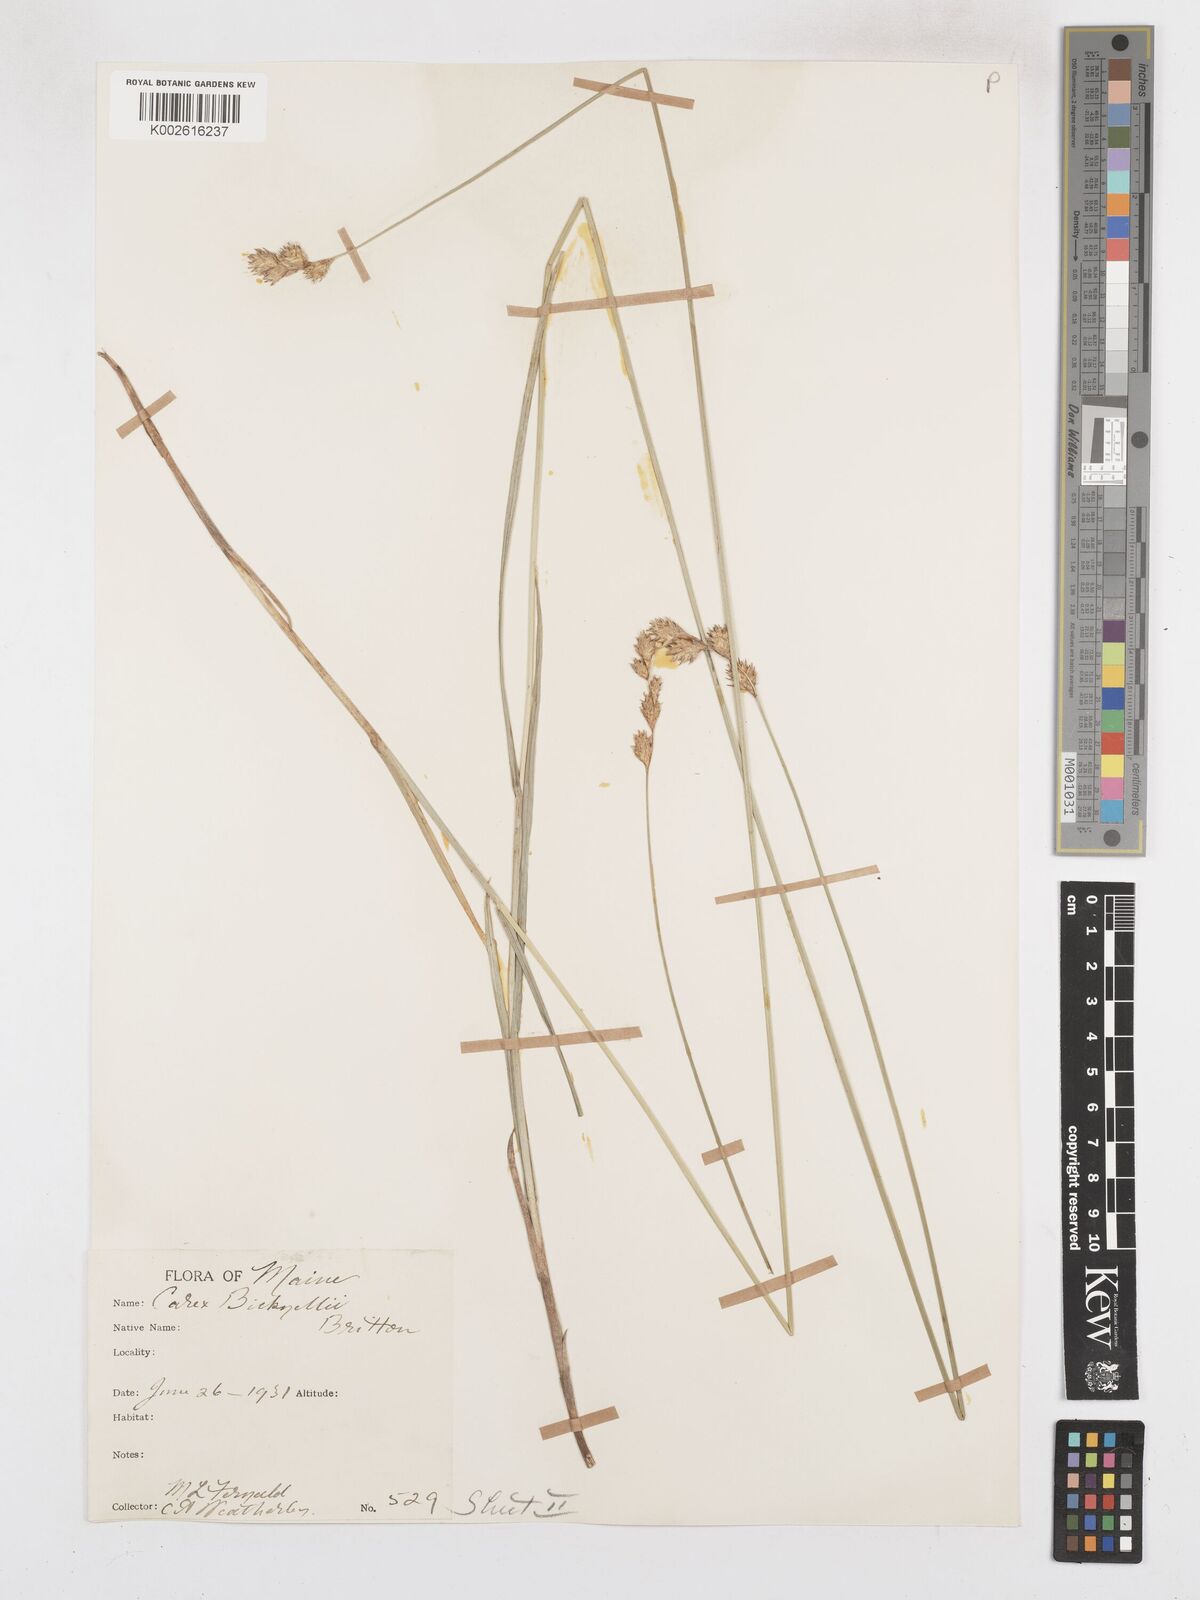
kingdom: Plantae
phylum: Tracheophyta
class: Liliopsida
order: Poales
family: Cyperaceae
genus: Carex
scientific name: Carex bicknellii
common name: Bicknell's sedge
